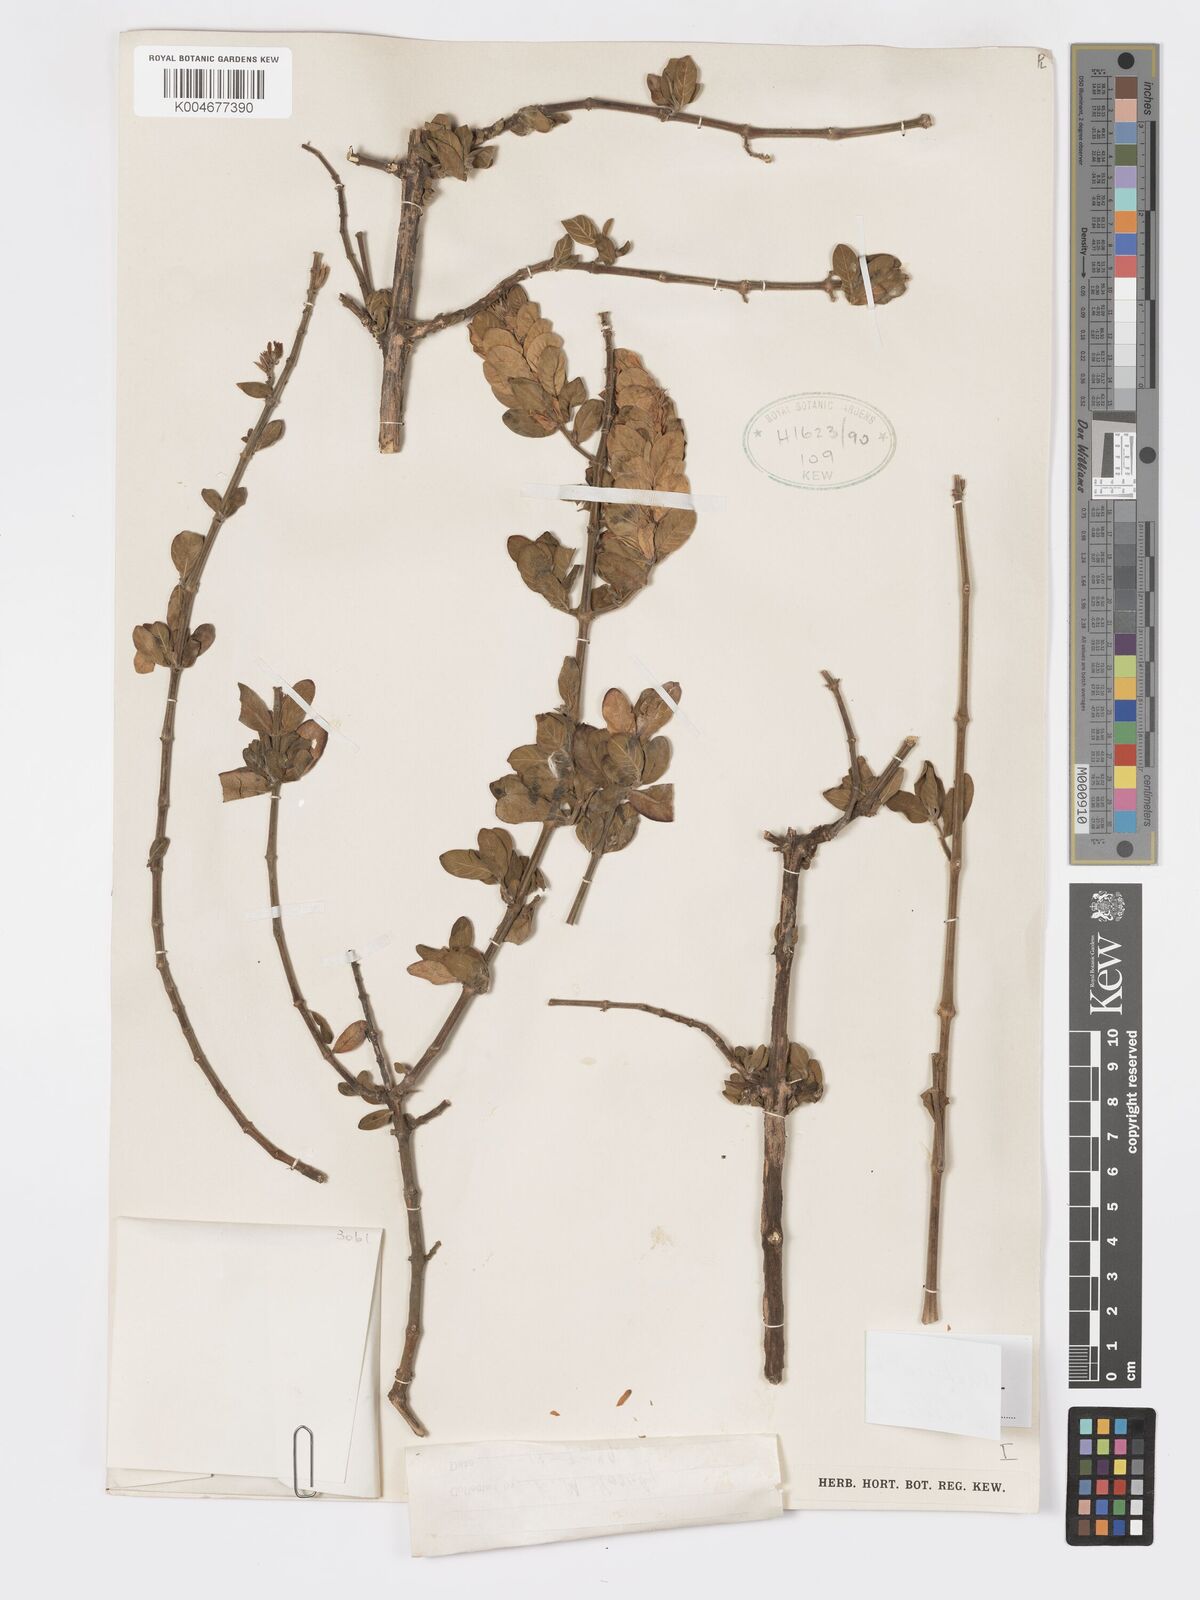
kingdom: Plantae
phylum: Tracheophyta
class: Magnoliopsida
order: Lamiales
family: Acanthaceae
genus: Pogonospermum
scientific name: Pogonospermum
